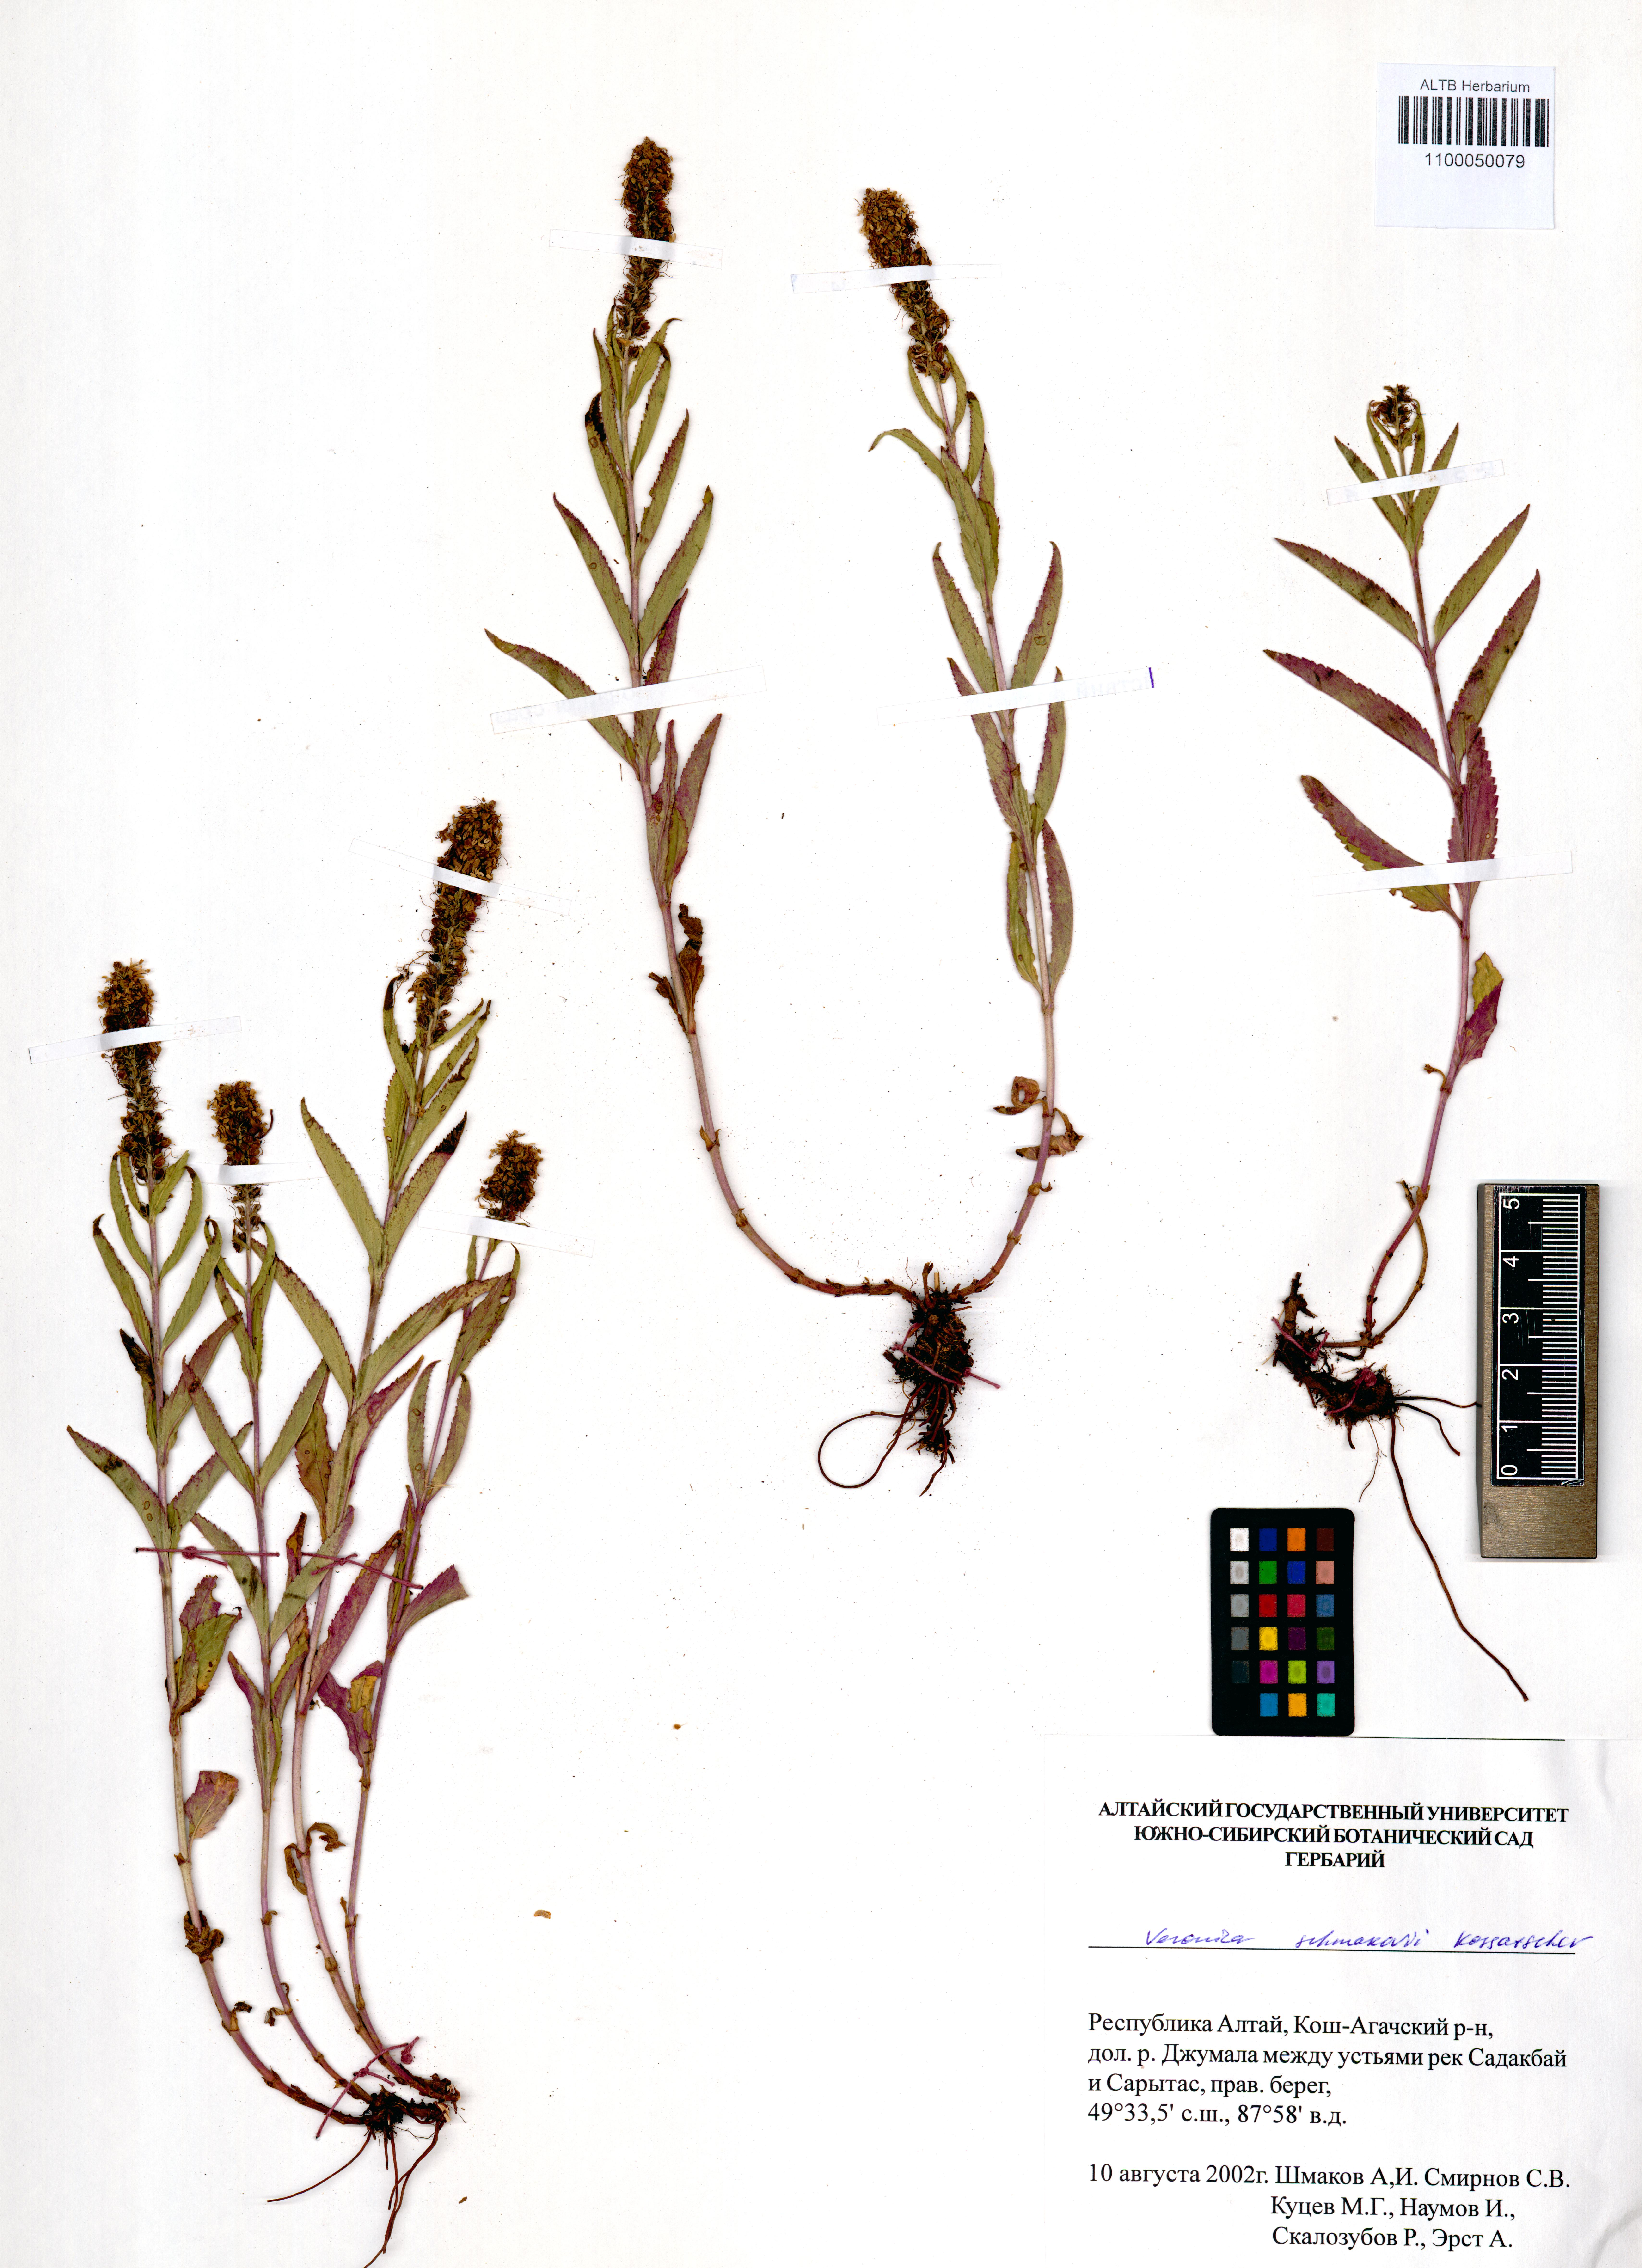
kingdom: Plantae
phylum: Tracheophyta
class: Magnoliopsida
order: Lamiales
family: Plantaginaceae
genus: Veronica
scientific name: Veronica schmakovii
